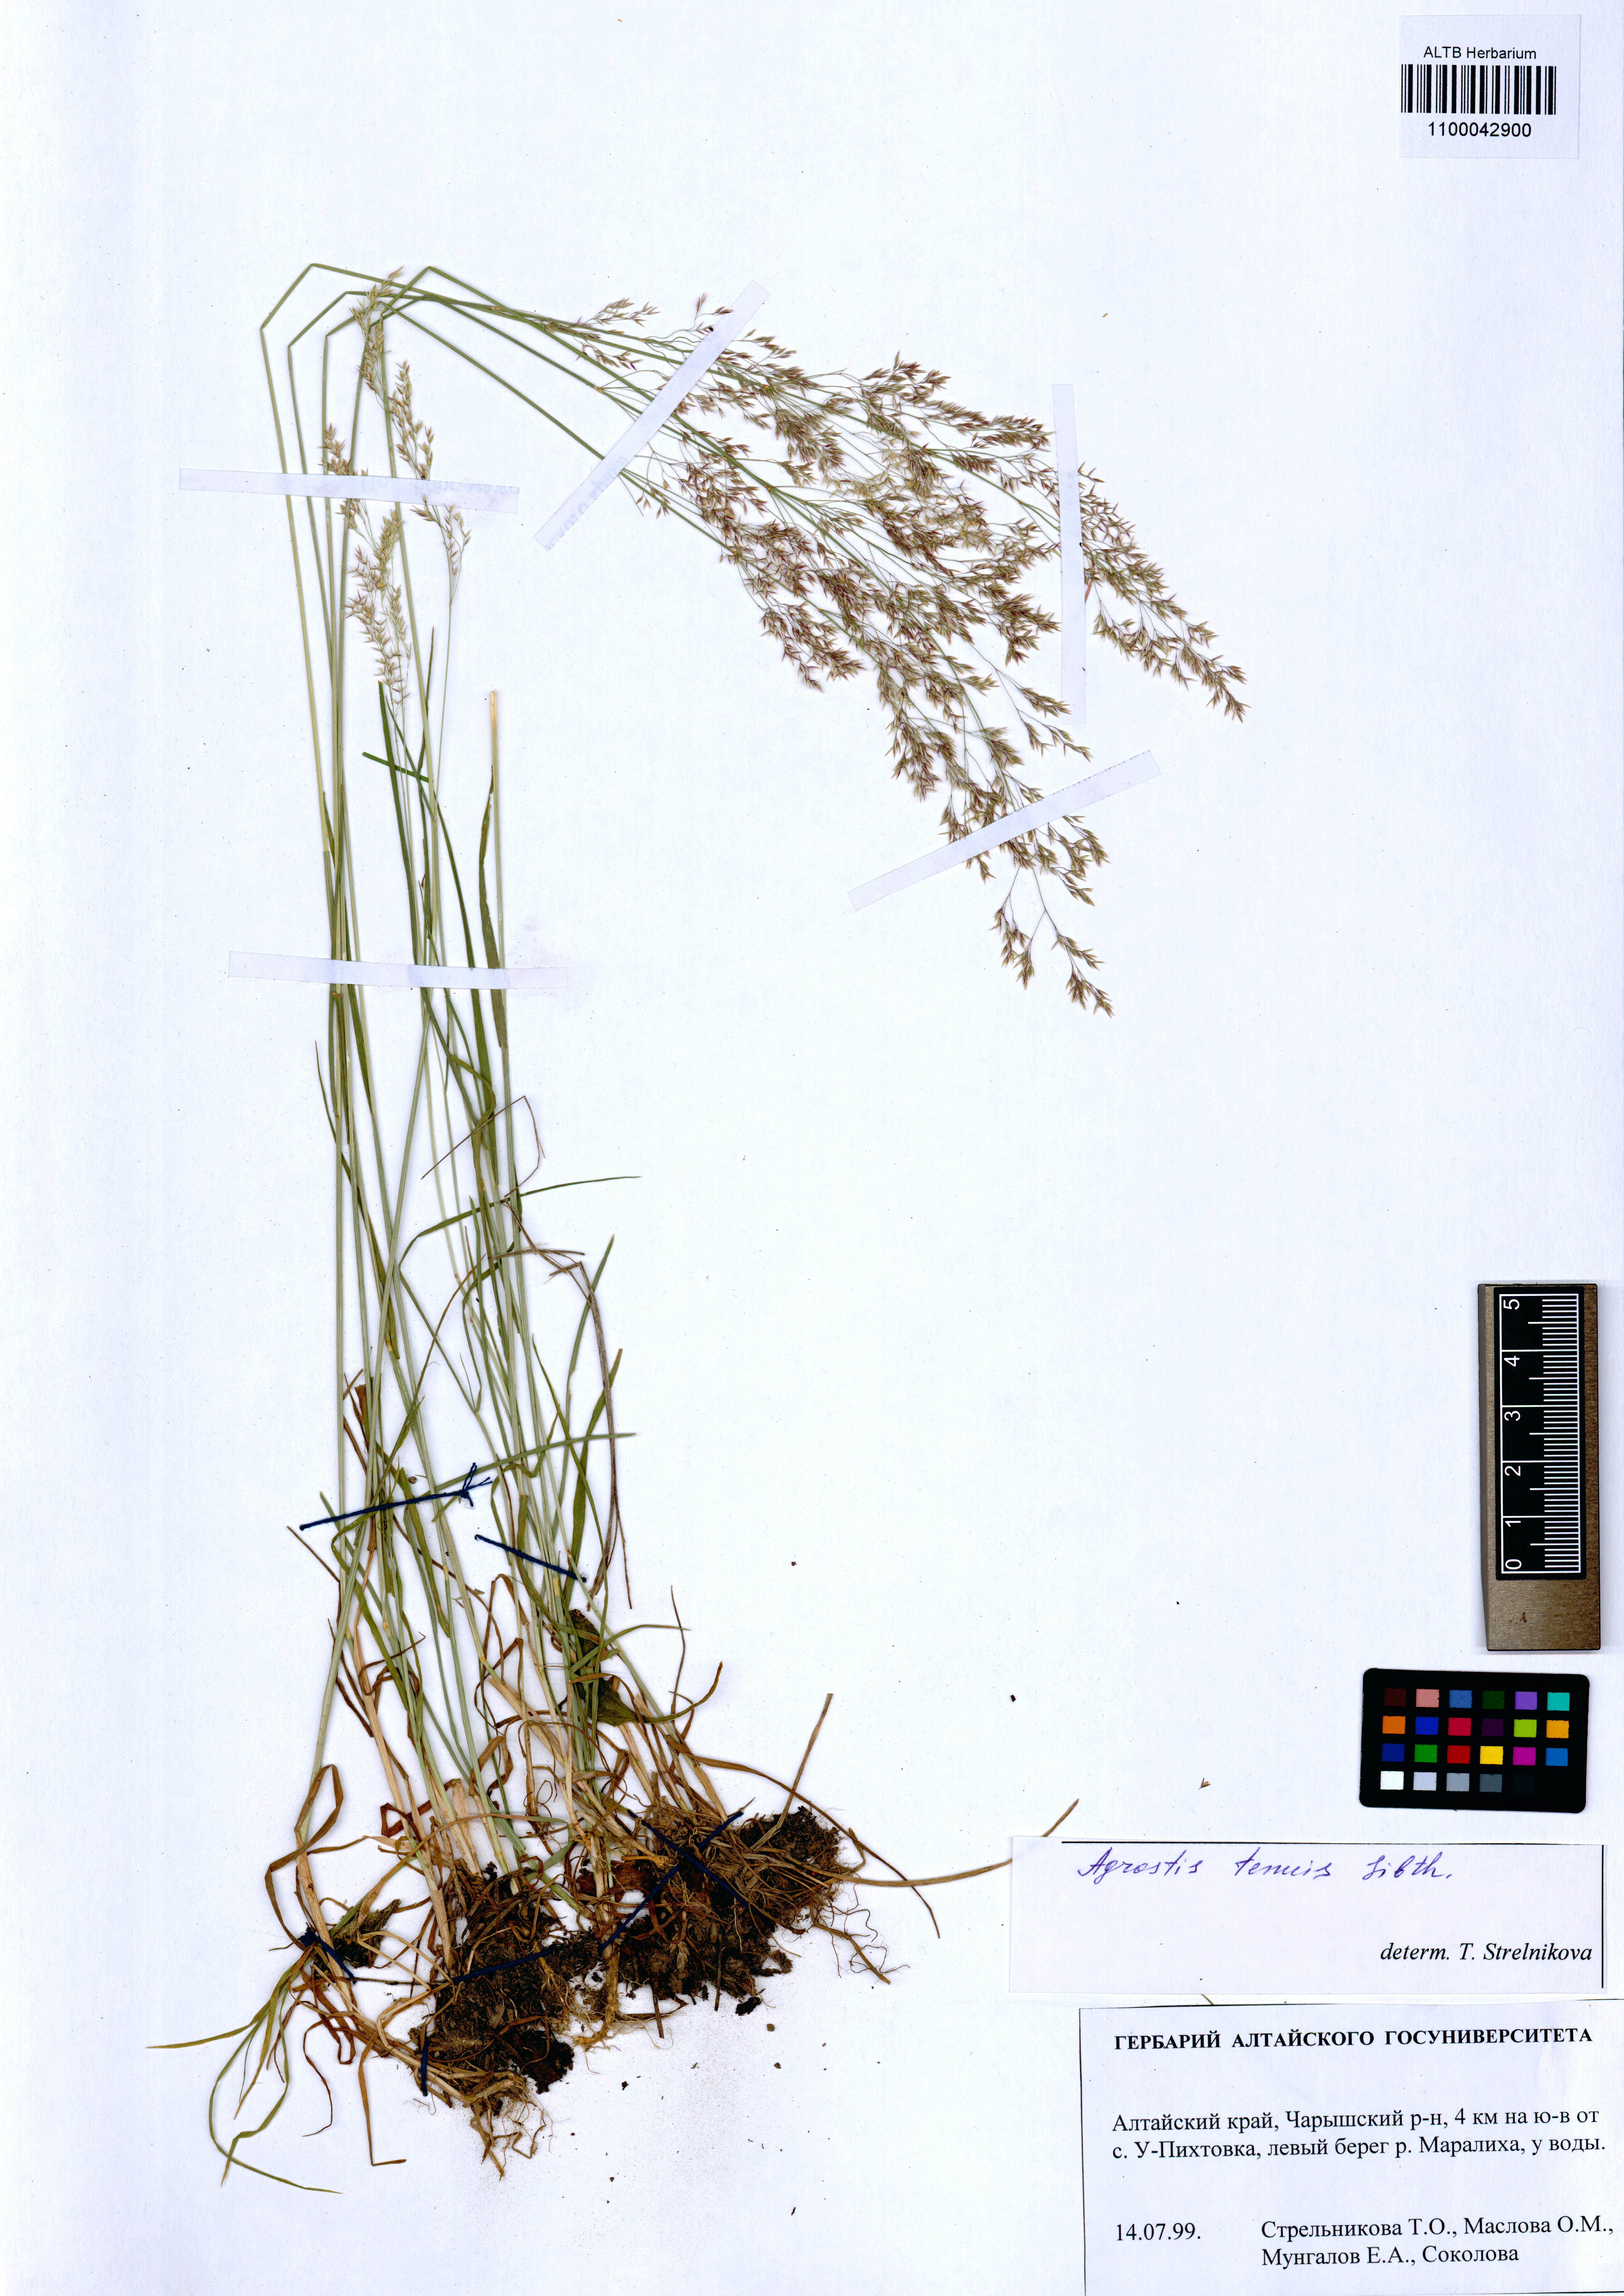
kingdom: Plantae
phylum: Tracheophyta
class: Liliopsida
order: Poales
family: Poaceae
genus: Agrostis
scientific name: Agrostis capillaris
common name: Colonial bentgrass
